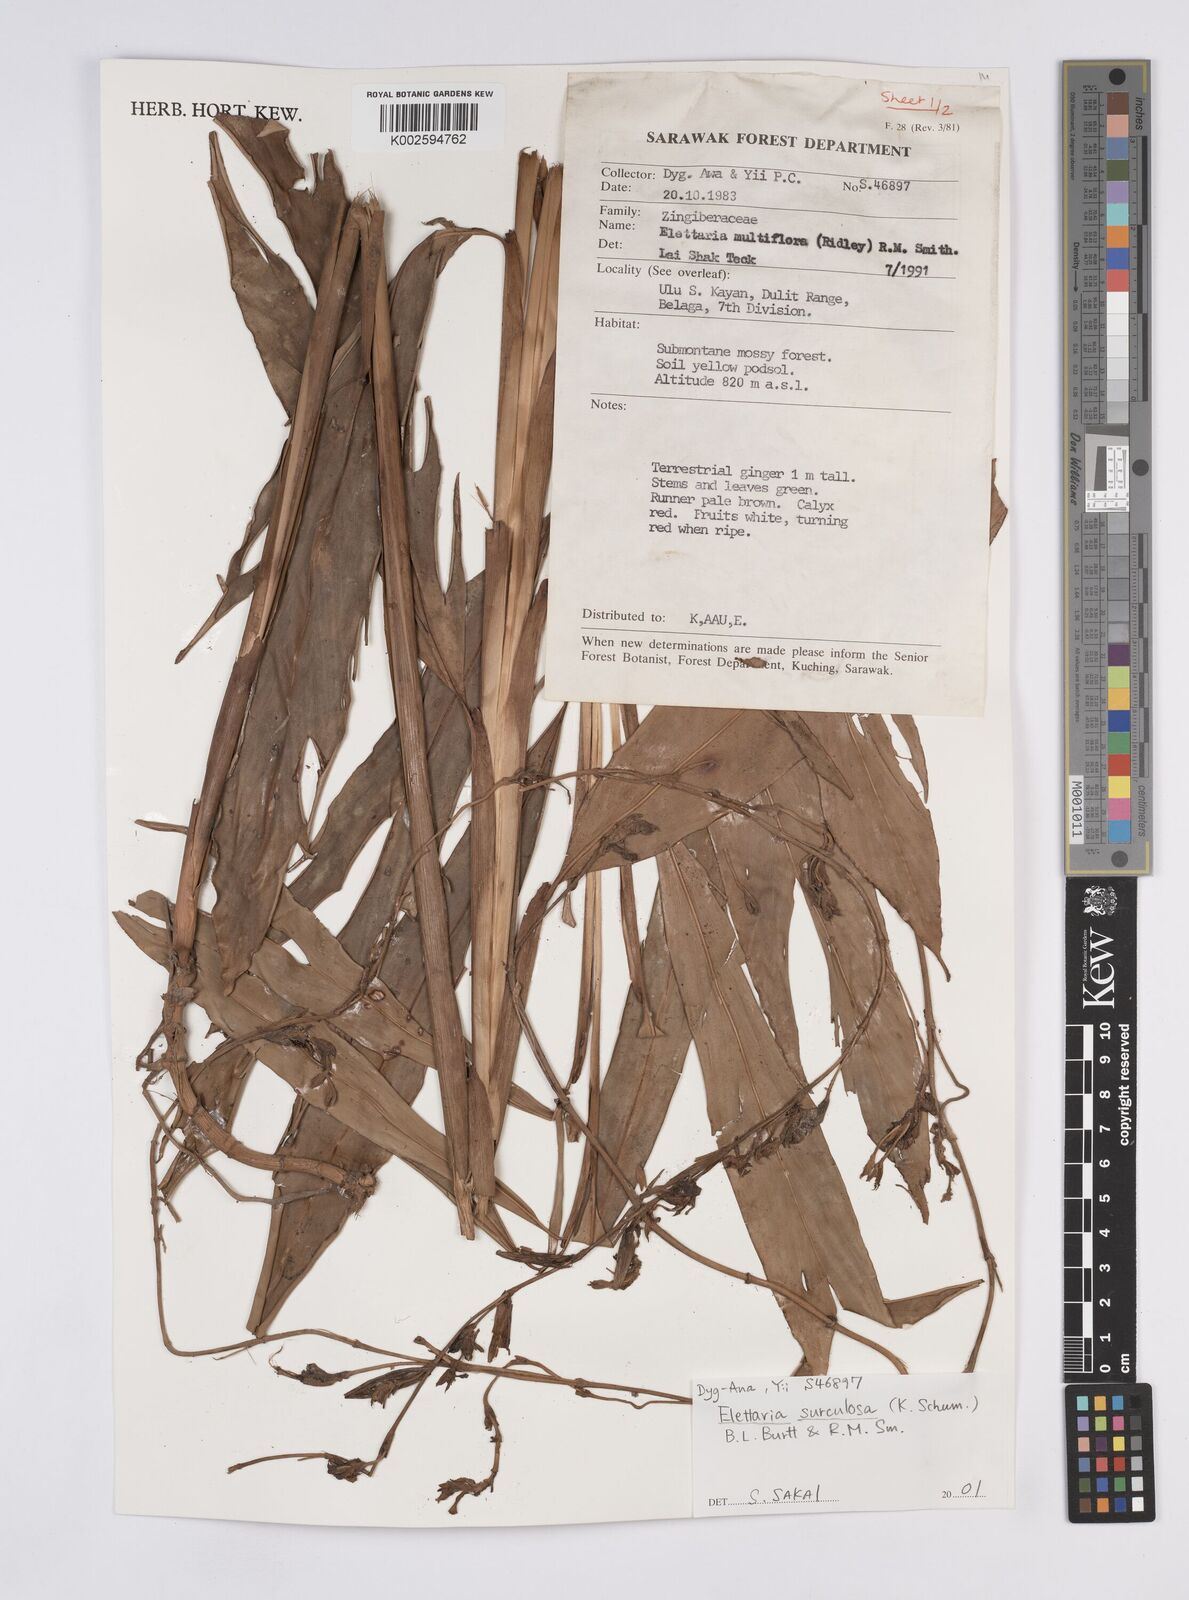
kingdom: Plantae
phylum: Tracheophyta
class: Liliopsida
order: Zingiberales
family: Zingiberaceae
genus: Elettaria
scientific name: Elettaria
